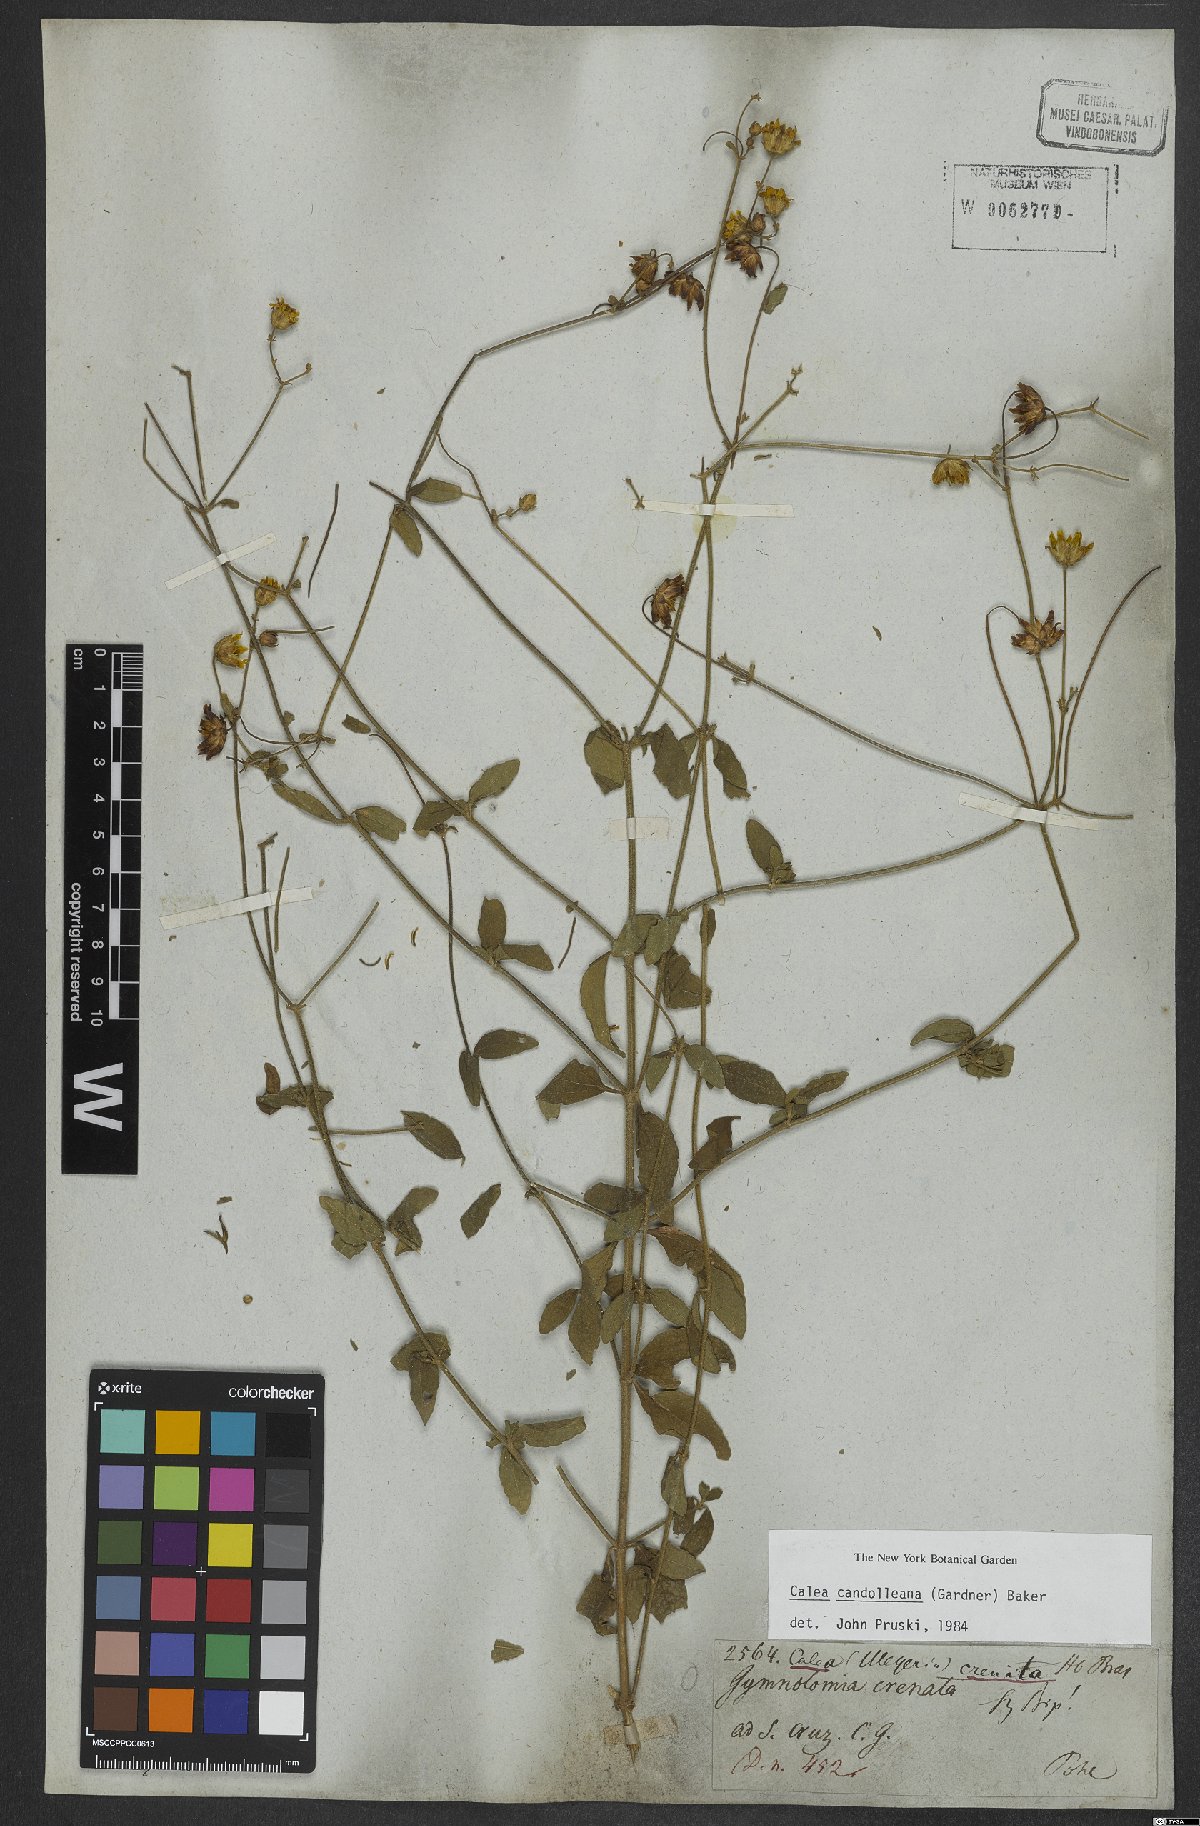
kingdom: Plantae
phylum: Tracheophyta
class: Magnoliopsida
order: Asterales
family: Asteraceae
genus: Calea
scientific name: Calea candolleana
